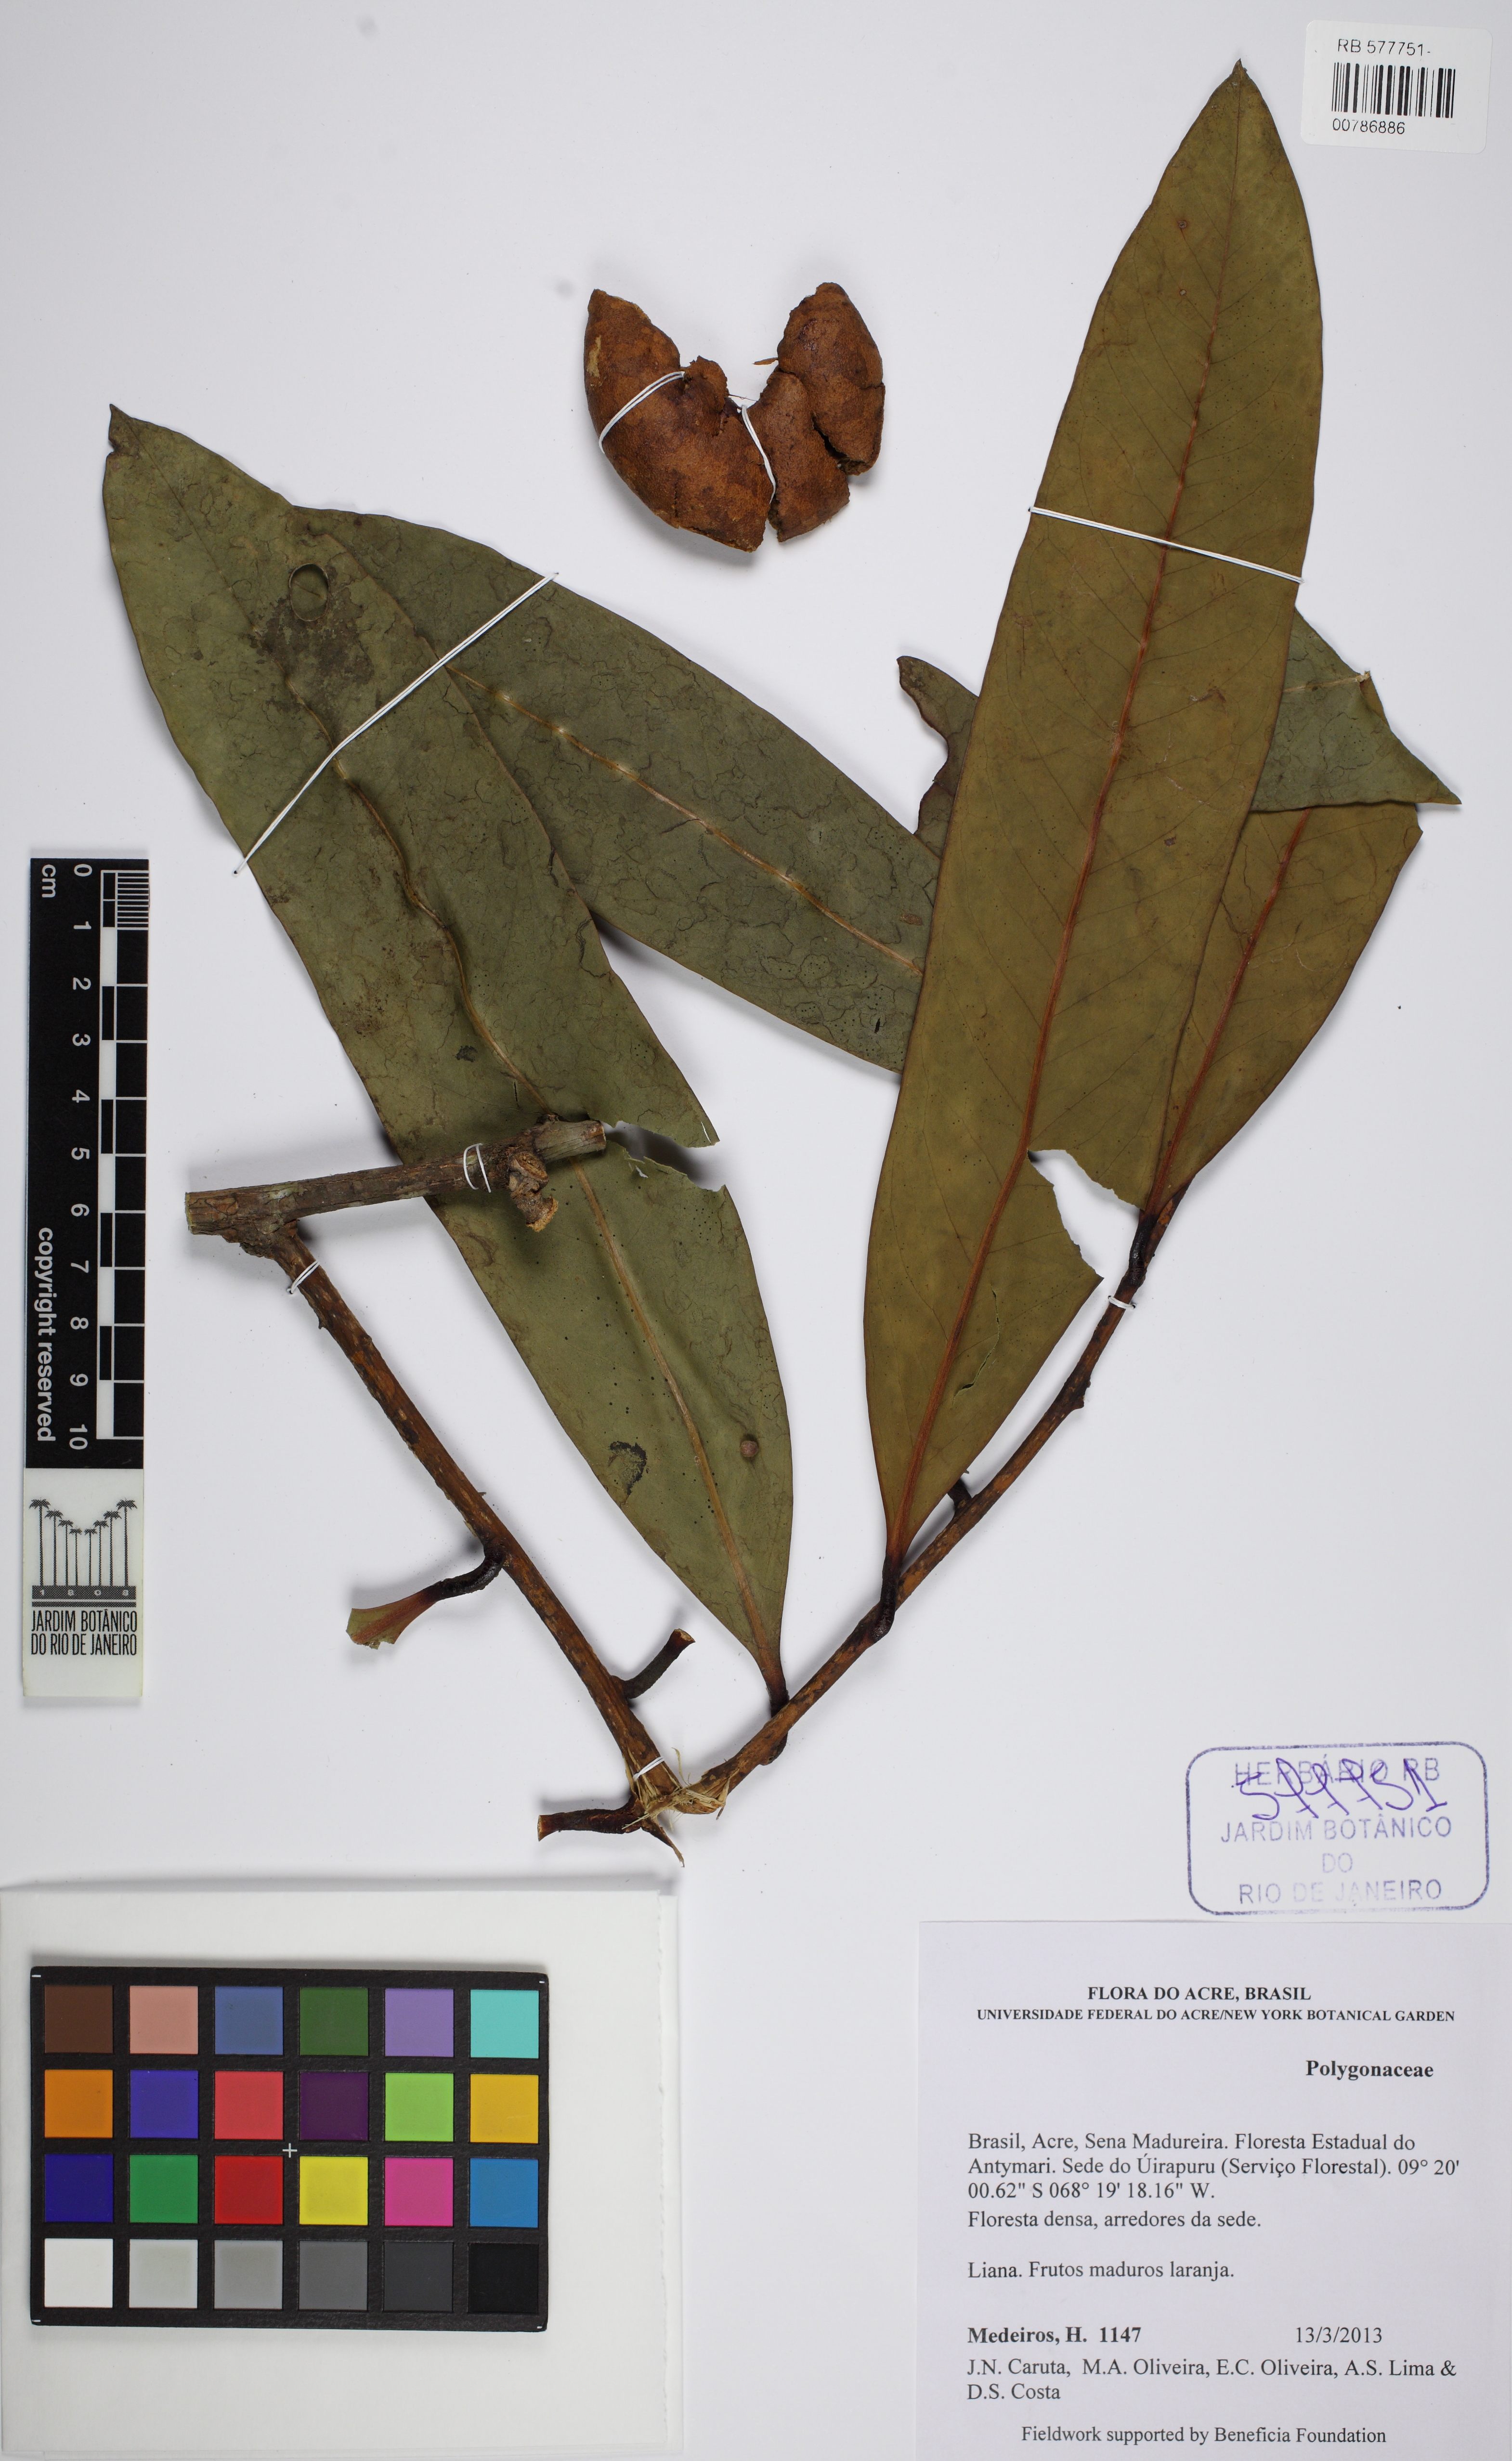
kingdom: Plantae
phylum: Tracheophyta
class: Magnoliopsida
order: Caryophyllales
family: Polygonaceae
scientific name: Polygonaceae
